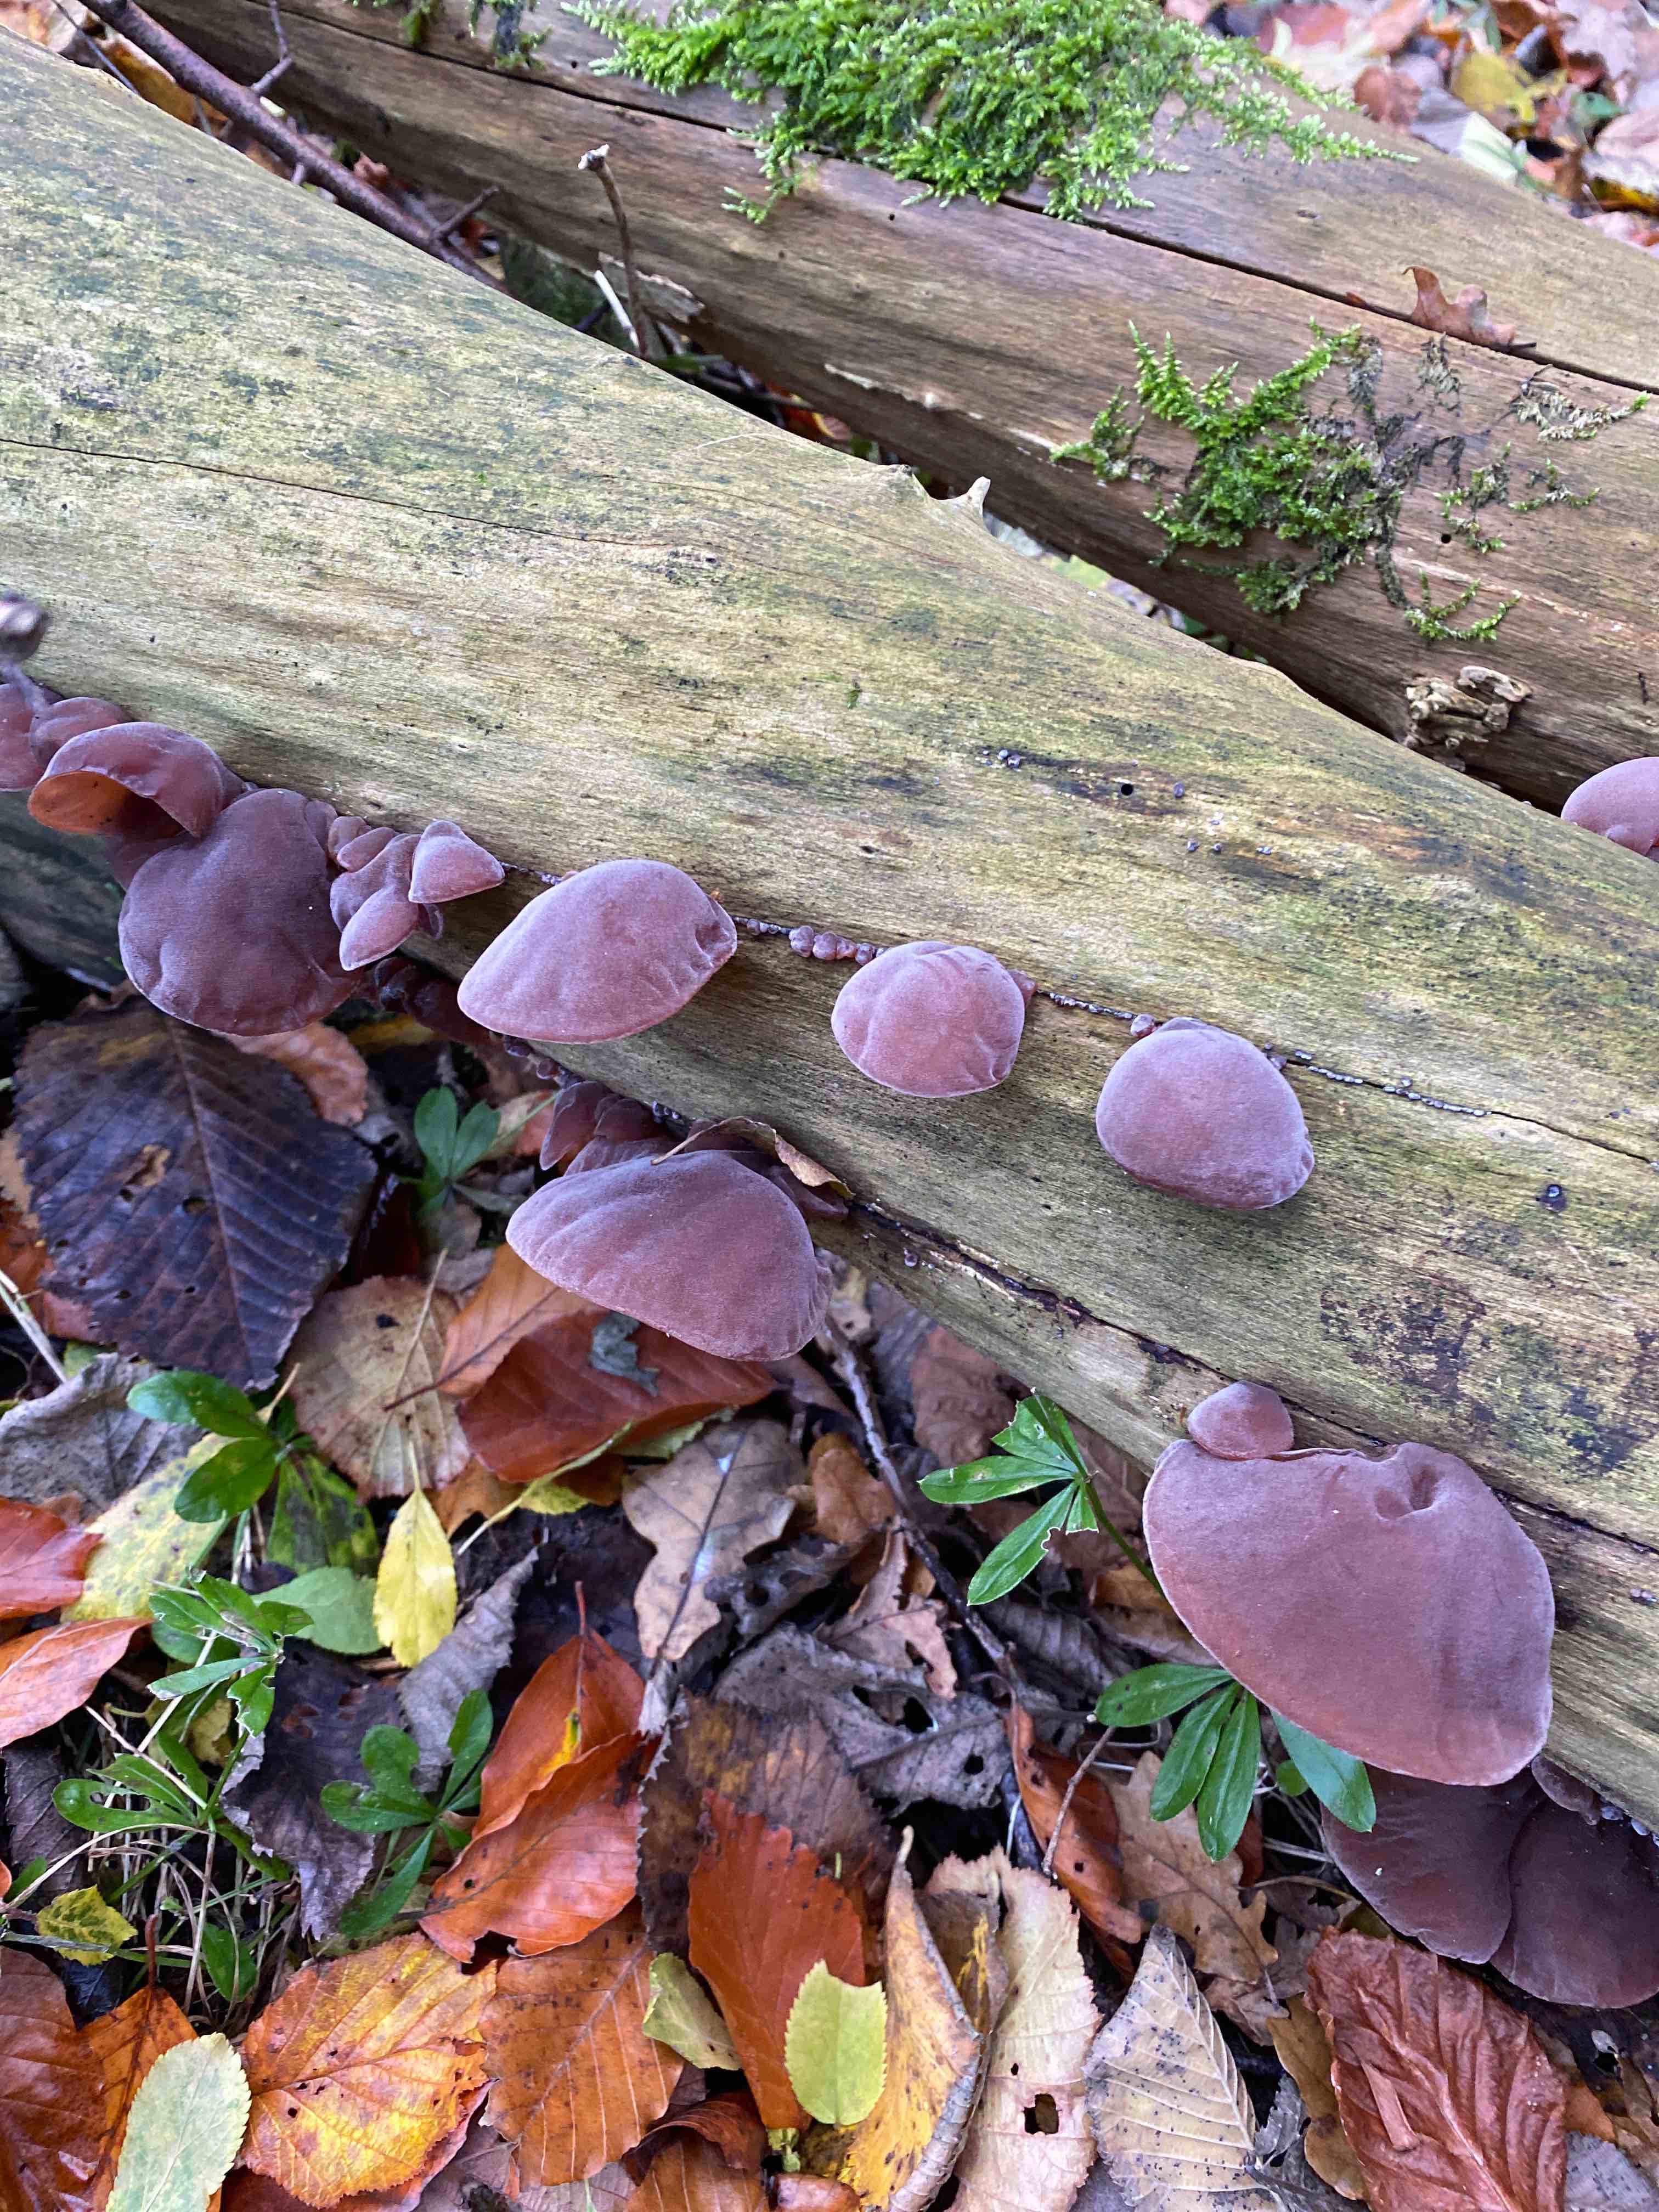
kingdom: Fungi
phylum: Basidiomycota
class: Agaricomycetes
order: Auriculariales
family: Auriculariaceae
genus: Auricularia
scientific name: Auricularia auricula-judae
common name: almindelig judasøre
